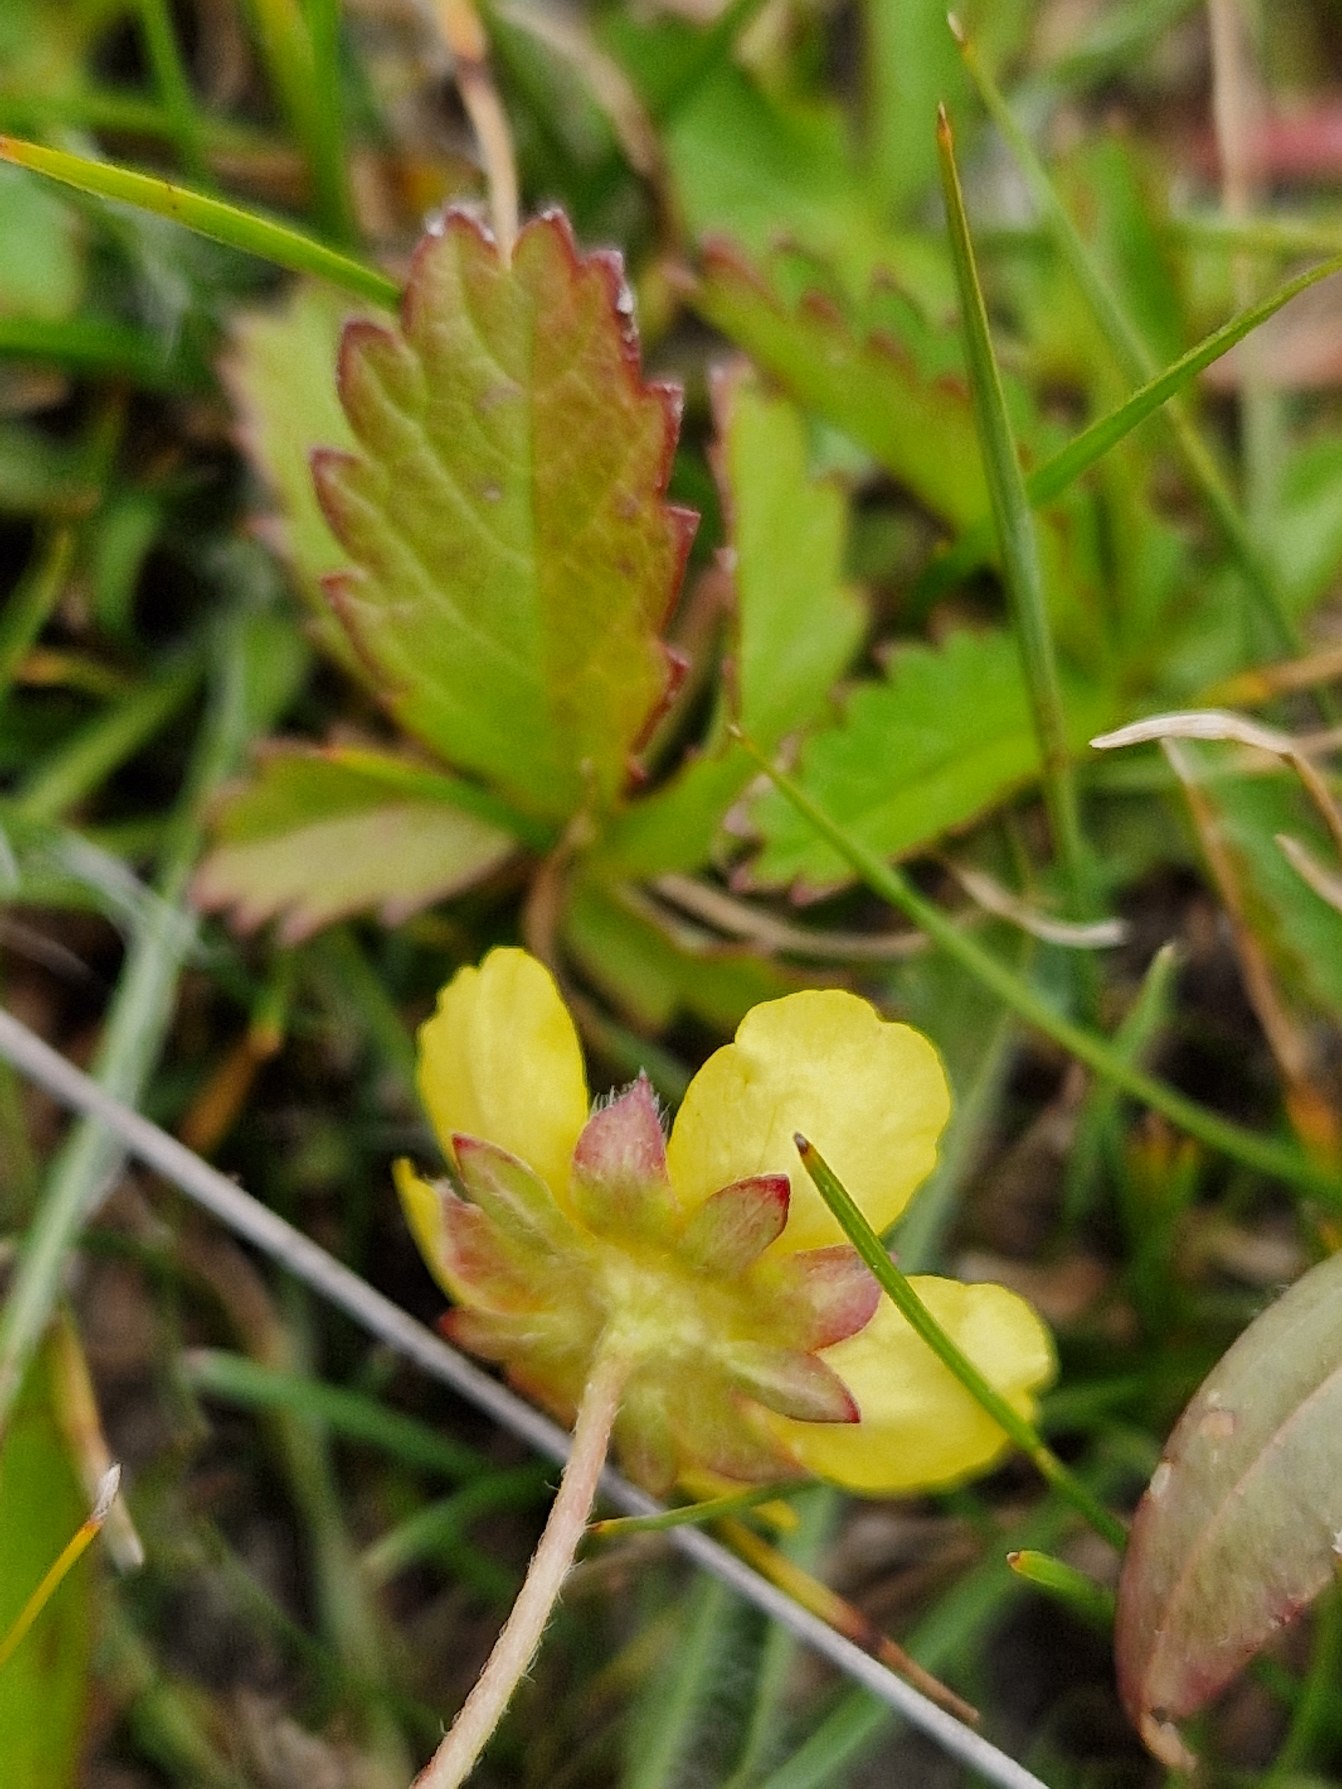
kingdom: Plantae
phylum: Tracheophyta
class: Magnoliopsida
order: Rosales
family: Rosaceae
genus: Potentilla
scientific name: Potentilla reptans
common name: Krybende potentil
